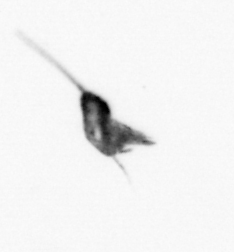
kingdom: Animalia
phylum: Arthropoda
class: Copepoda
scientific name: Copepoda
